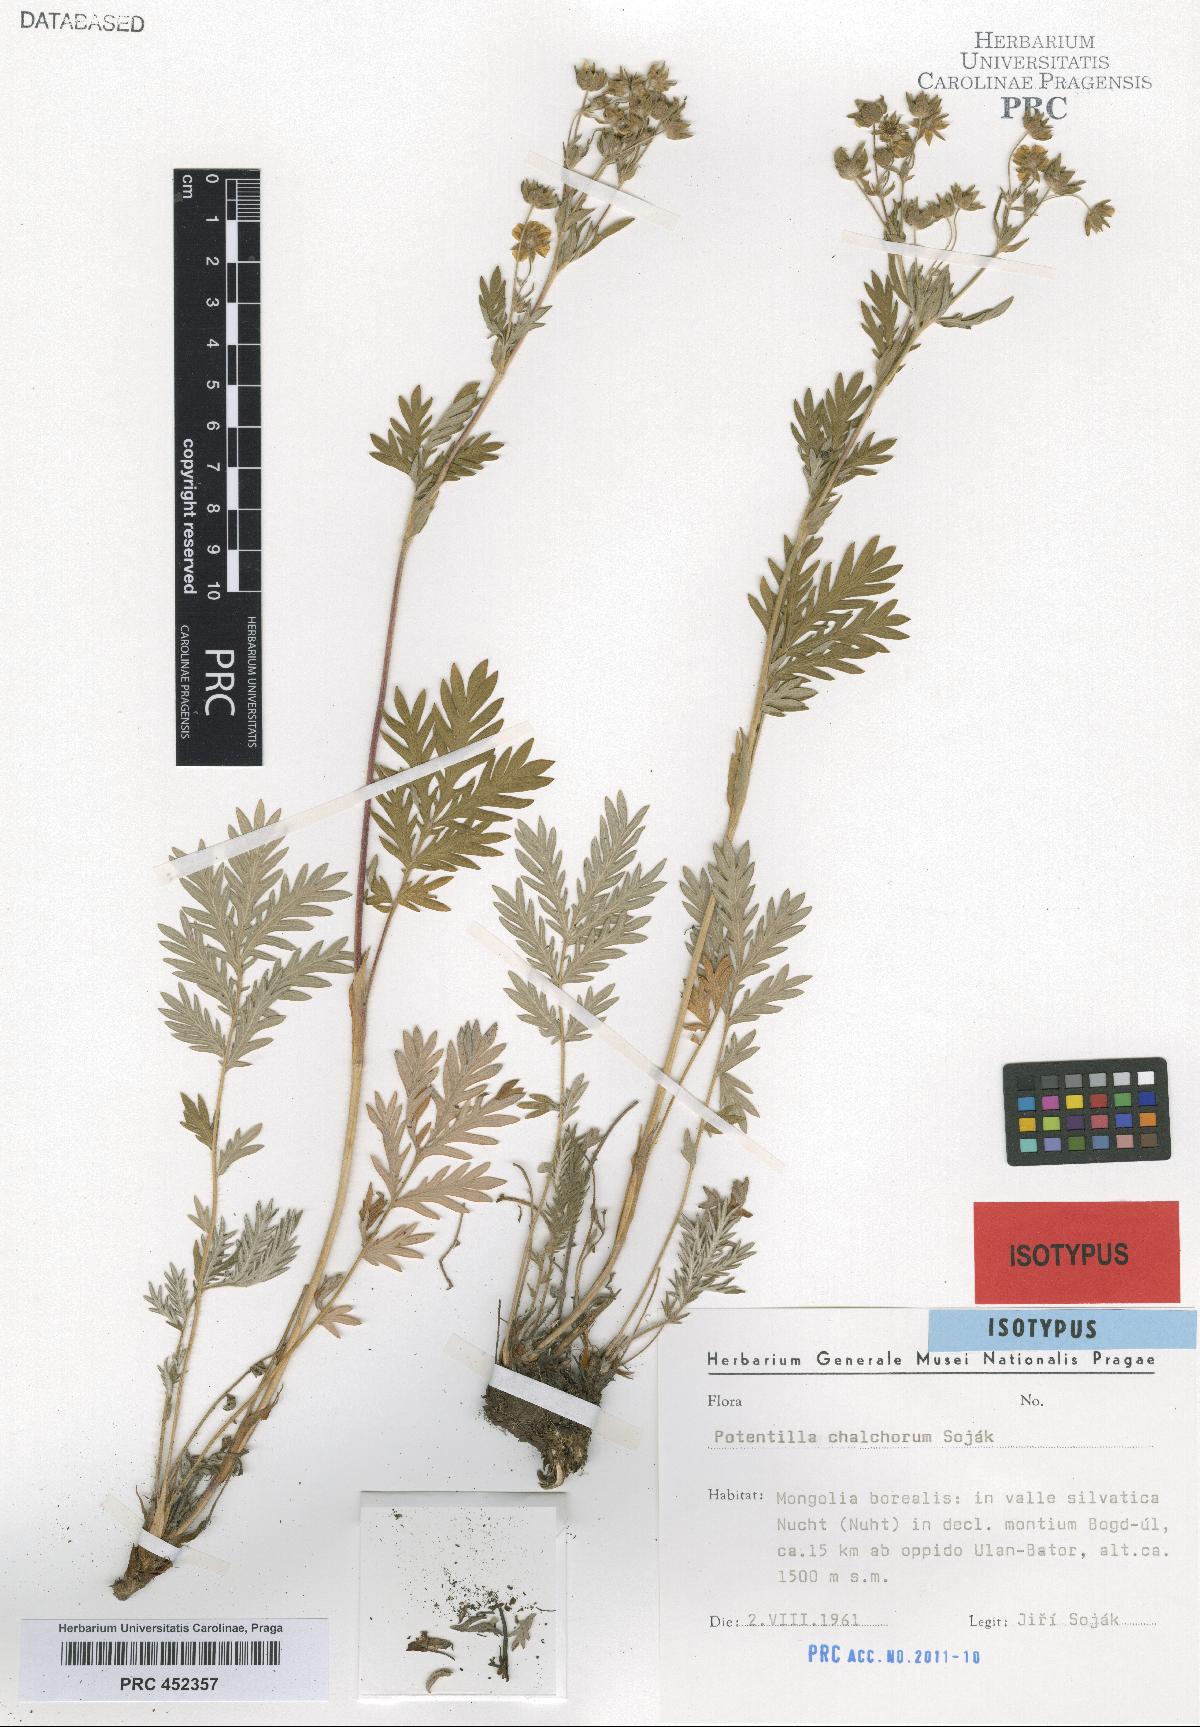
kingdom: Plantae
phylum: Tracheophyta
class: Magnoliopsida
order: Rosales
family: Rosaceae
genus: Potentilla
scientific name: Potentilla chalchorum
